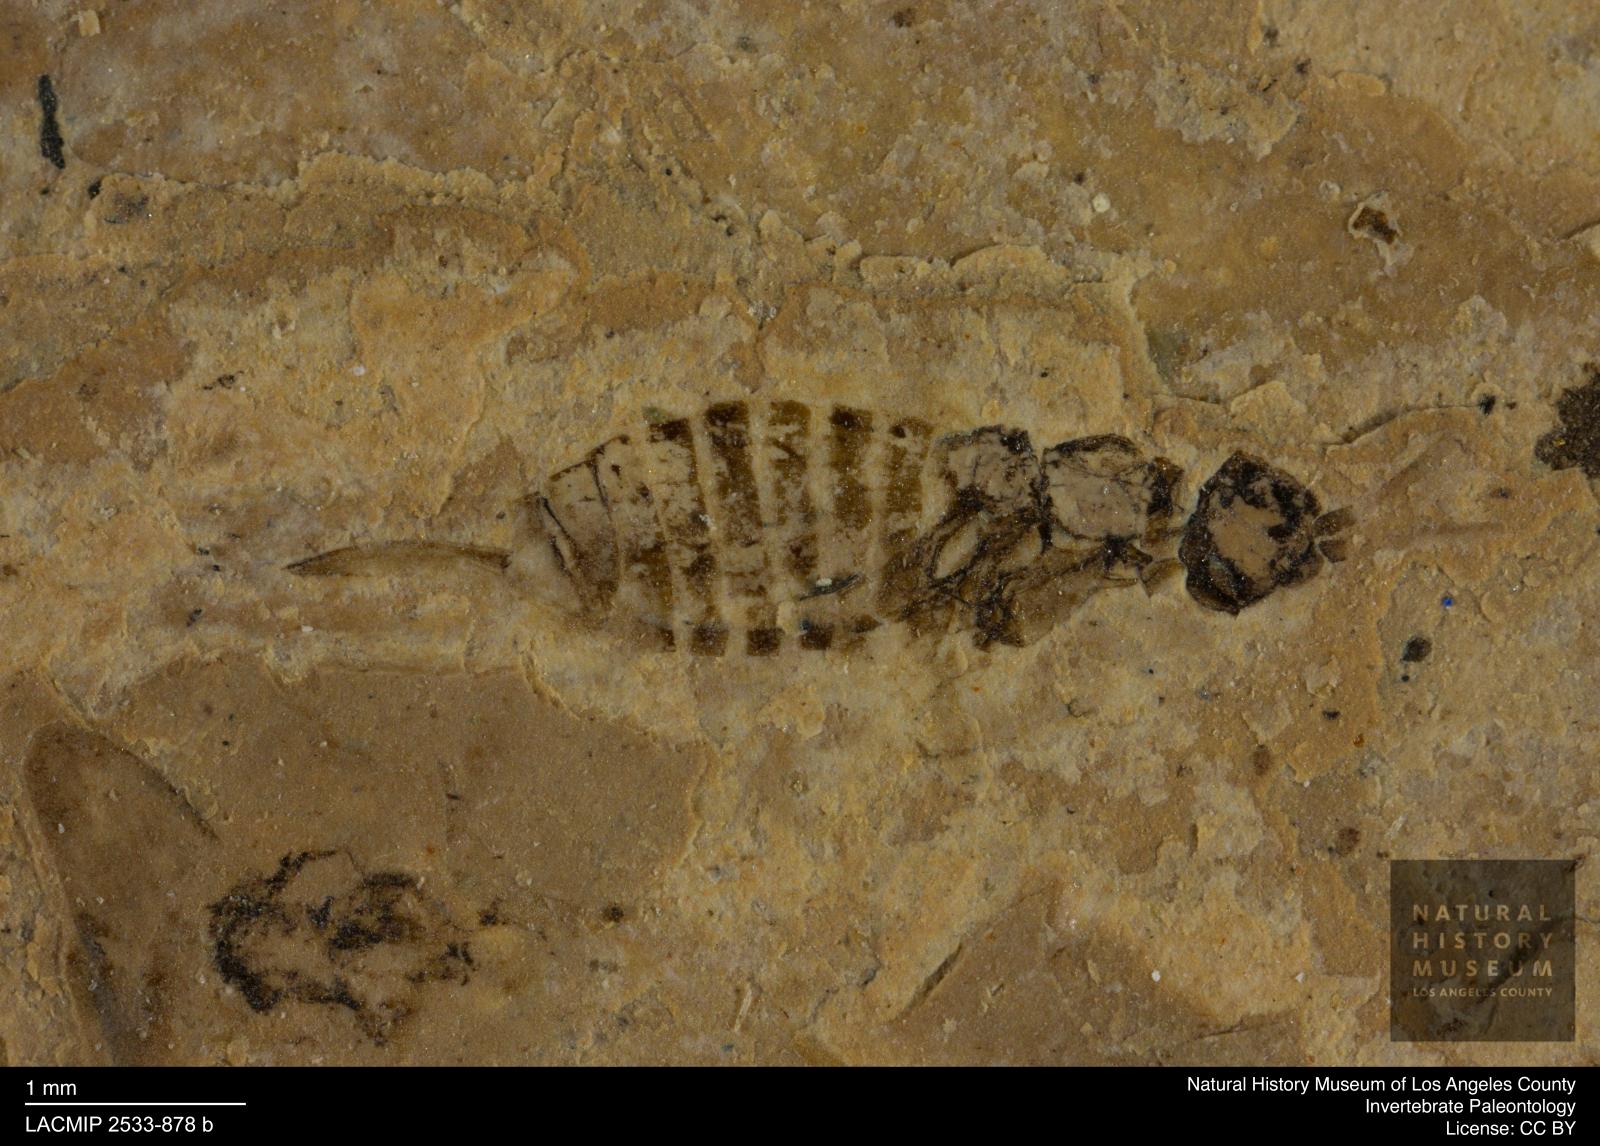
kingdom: Animalia
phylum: Arthropoda
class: Insecta
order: Hymenoptera
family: Xyelidae
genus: Xyela
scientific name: Xyela latipennis
